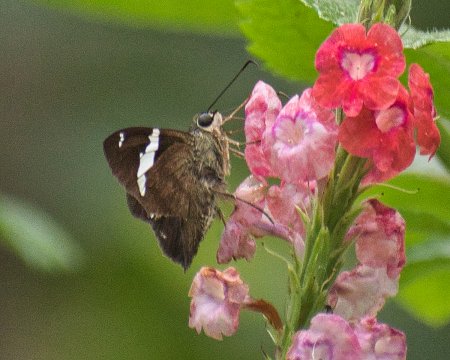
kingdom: Animalia
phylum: Arthropoda
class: Insecta
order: Lepidoptera
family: Hesperiidae
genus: Autochton
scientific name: Autochton neis
